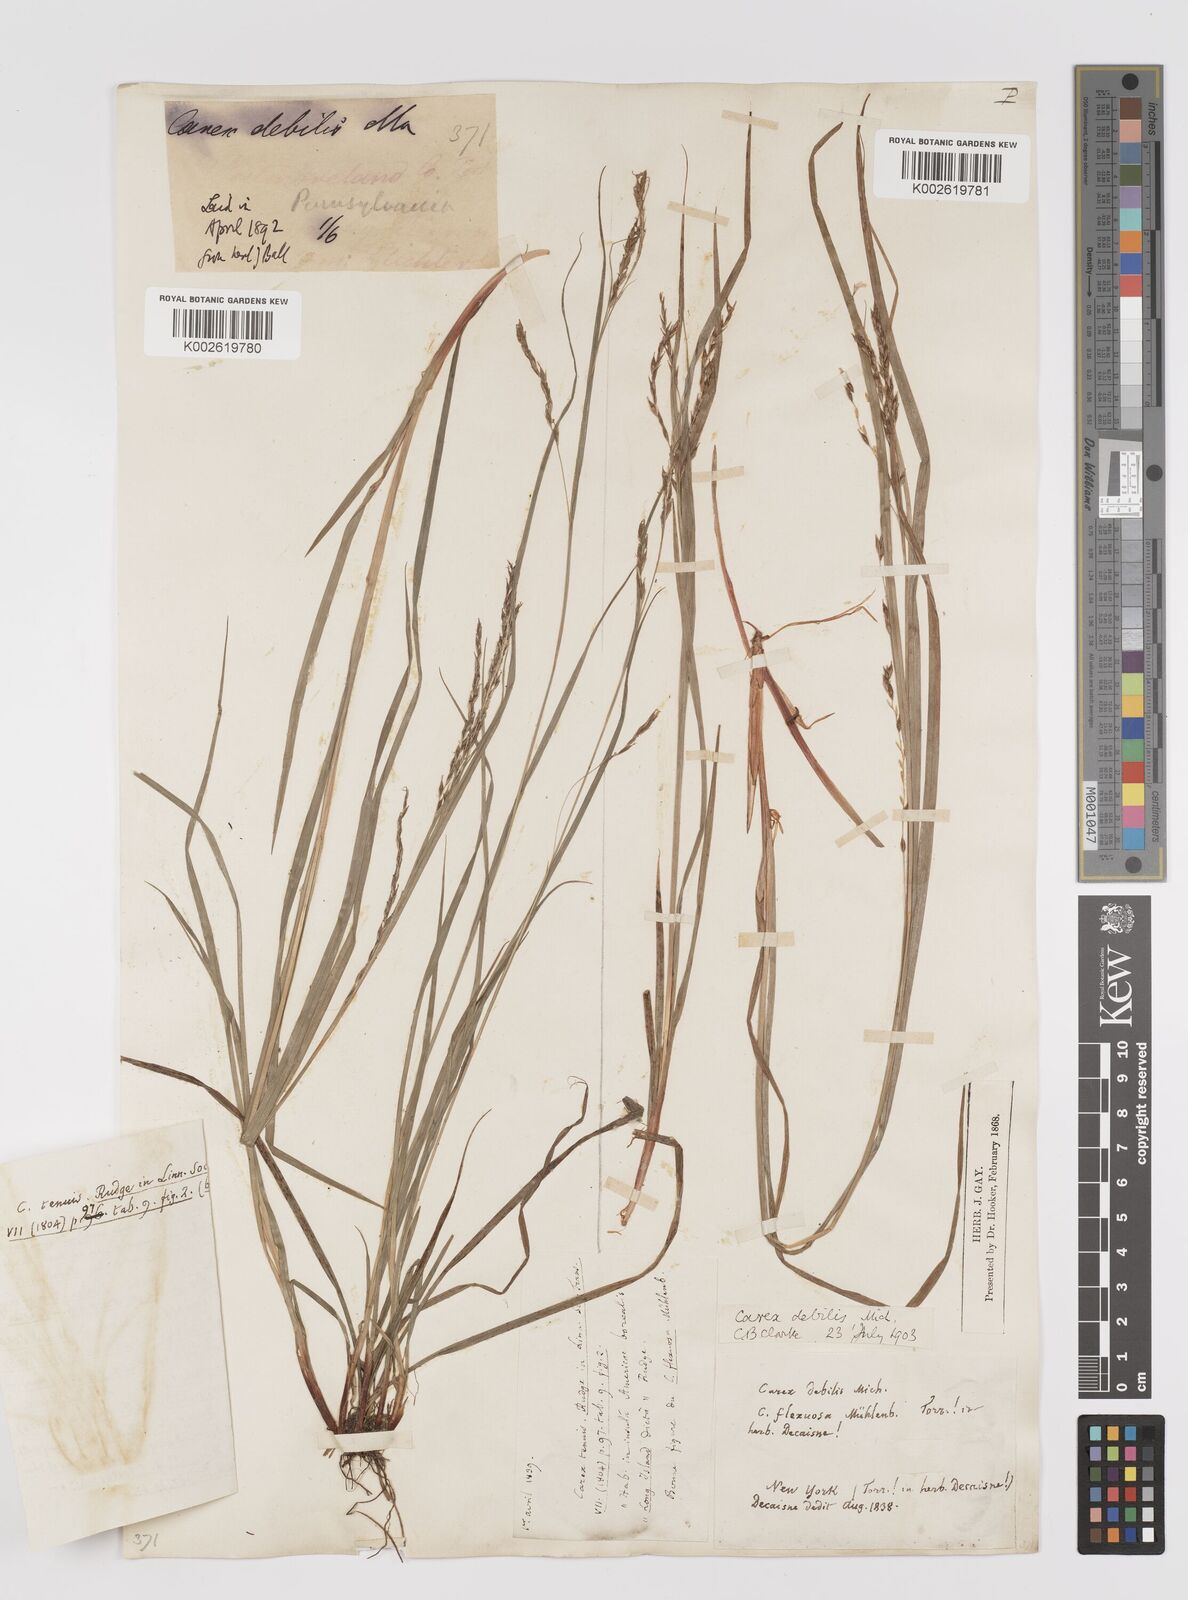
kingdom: Plantae
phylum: Tracheophyta
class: Liliopsida
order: Poales
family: Cyperaceae
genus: Carex
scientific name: Carex debilis
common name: White-edge sedge
